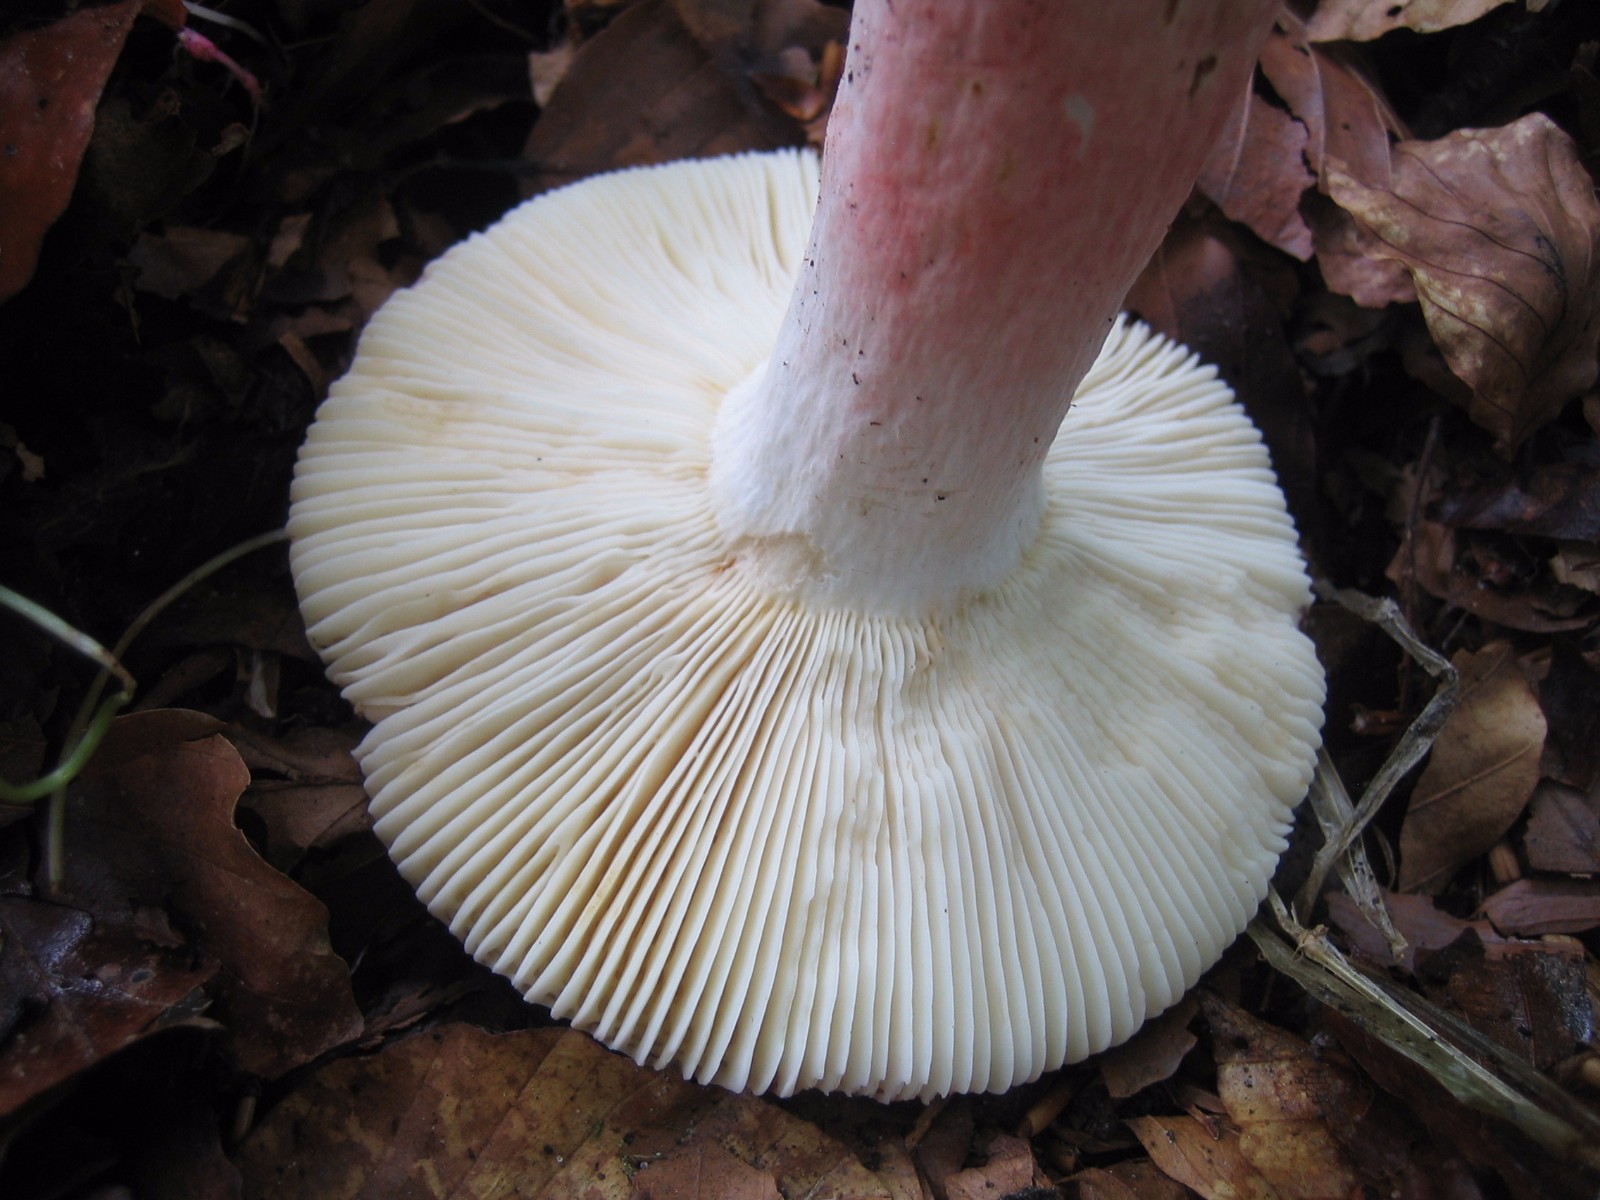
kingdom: Fungi
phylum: Basidiomycota
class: Agaricomycetes
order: Russulales
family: Russulaceae
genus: Russula
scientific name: Russula rosea
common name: fastkødet skørhat
